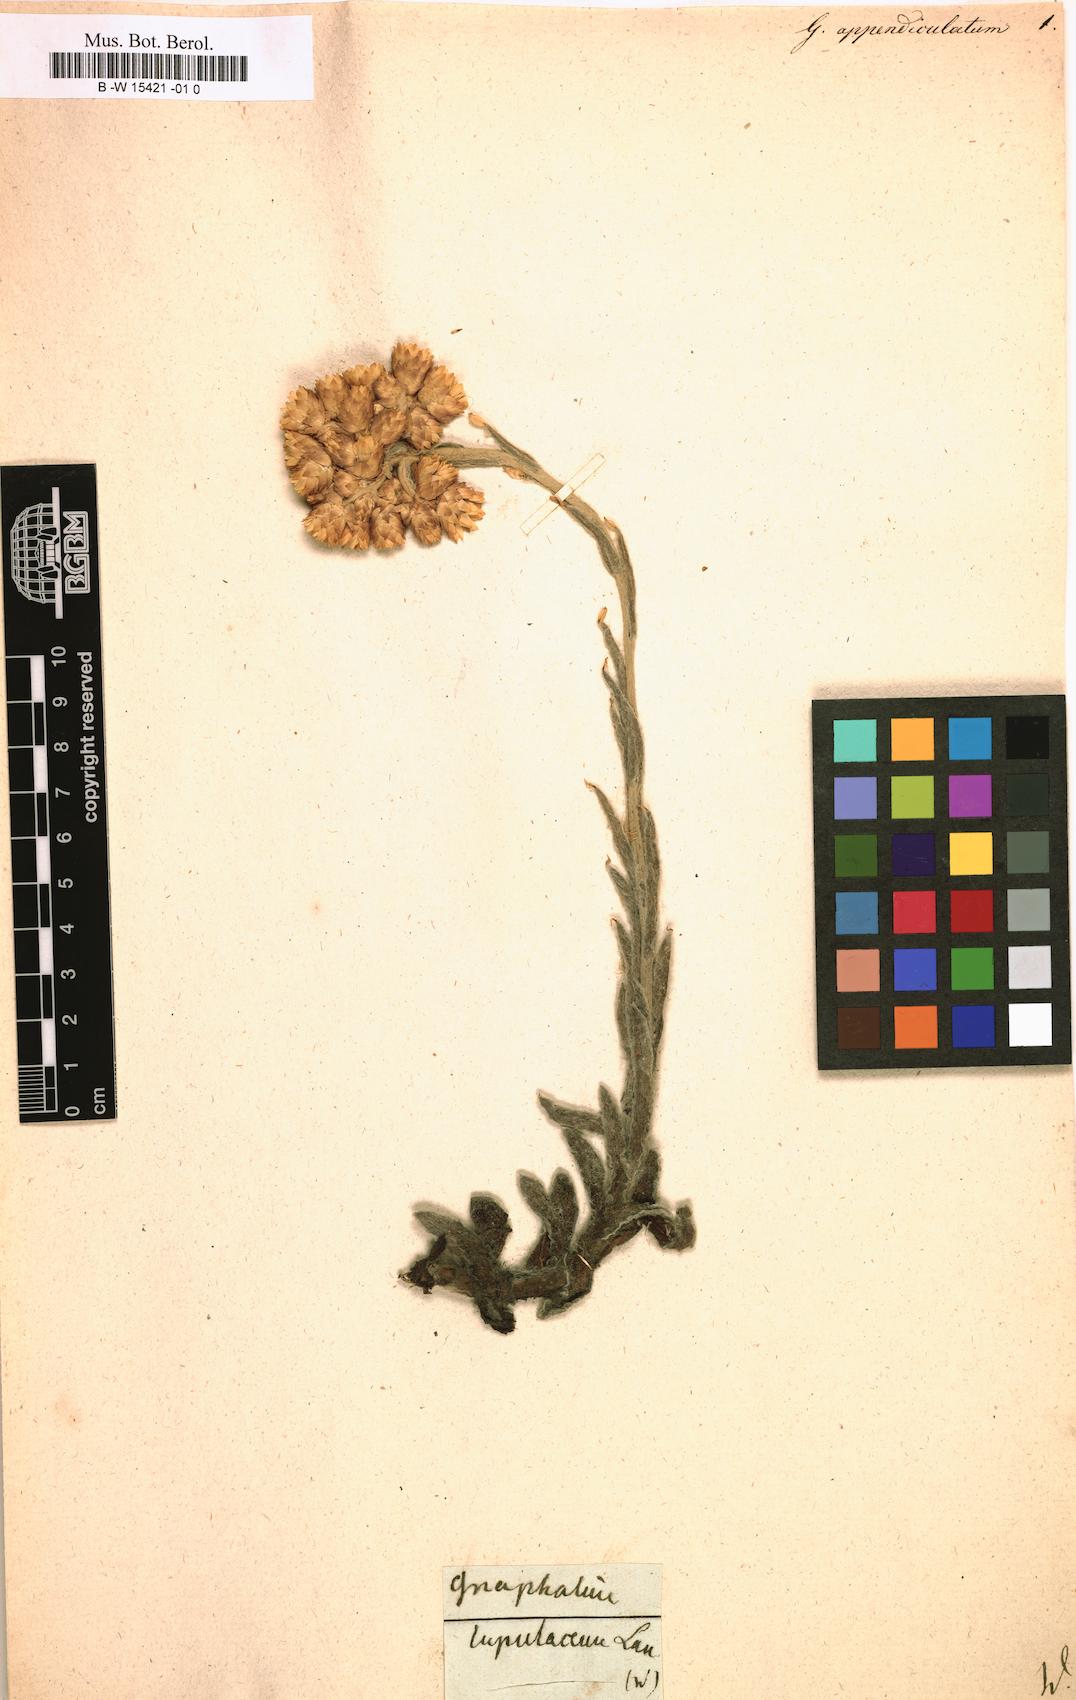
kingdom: Plantae
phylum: Tracheophyta
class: Magnoliopsida
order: Asterales
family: Asteraceae
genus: Helichrysum
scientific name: Helichrysum appendiculatum
